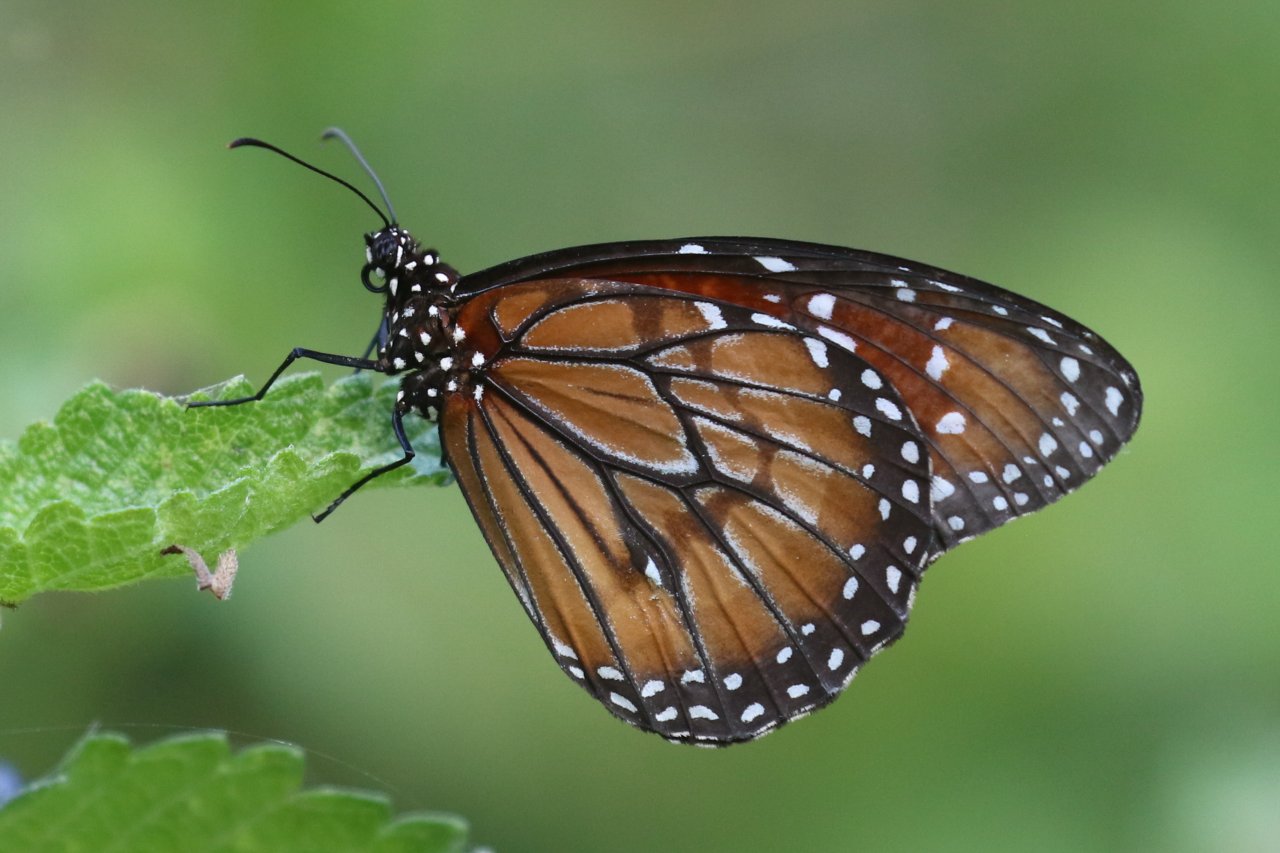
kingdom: Animalia
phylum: Arthropoda
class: Insecta
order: Lepidoptera
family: Nymphalidae
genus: Danaus
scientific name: Danaus eresimus
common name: Soldier
